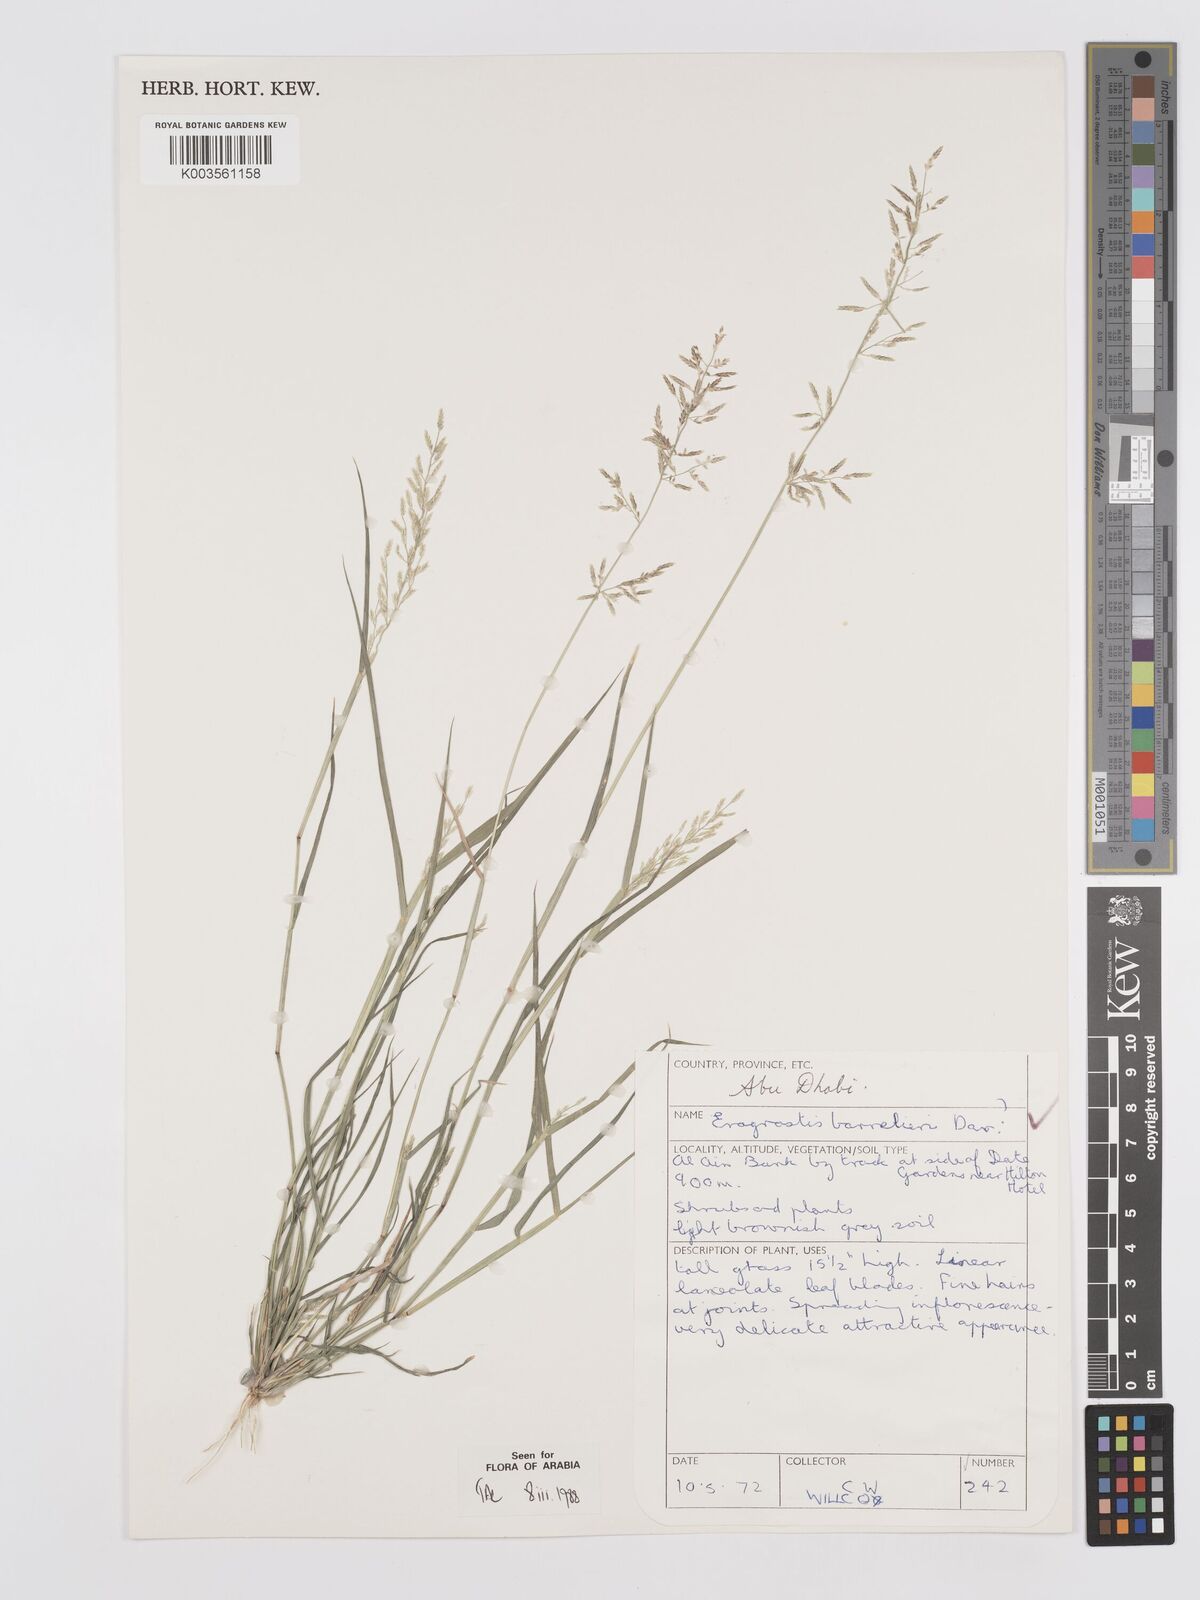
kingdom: Plantae
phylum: Tracheophyta
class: Liliopsida
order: Poales
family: Poaceae
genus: Eragrostis
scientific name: Eragrostis barrelieri
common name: Mediterranean lovegrass
